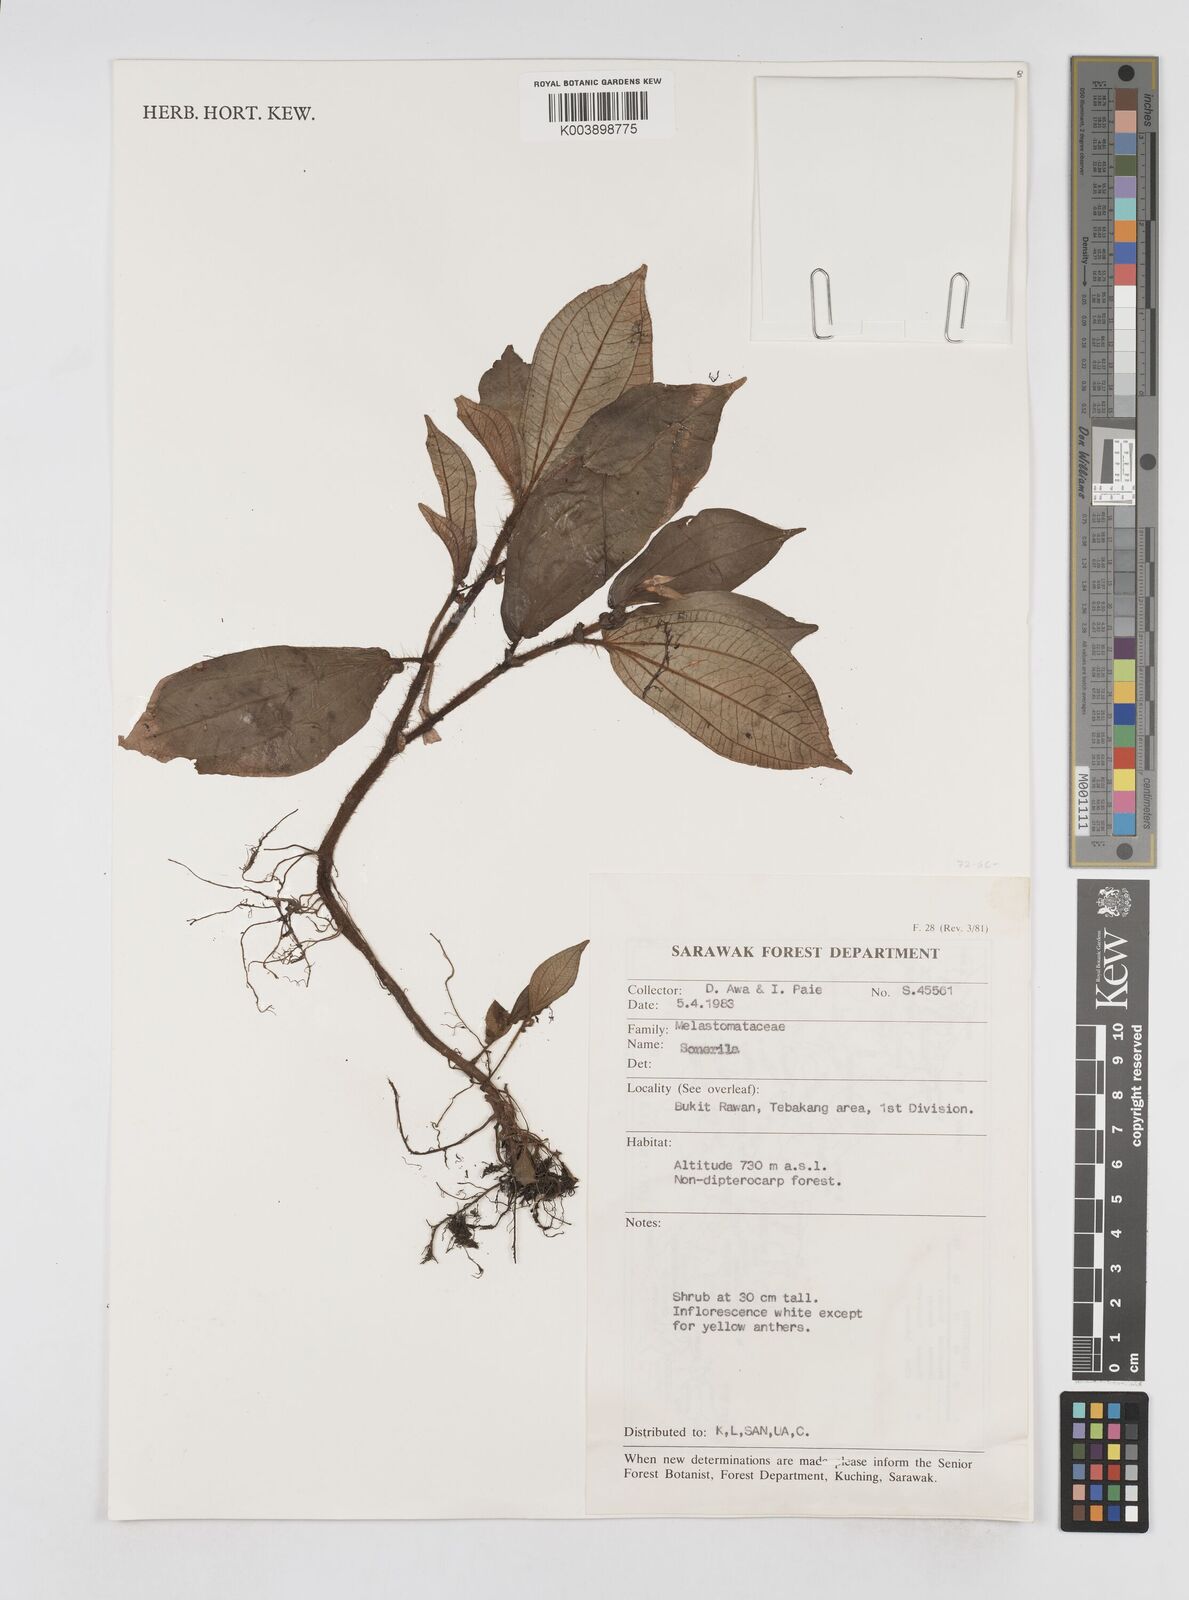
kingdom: Plantae
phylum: Tracheophyta
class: Magnoliopsida
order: Myrtales
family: Melastomataceae
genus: Sonerila
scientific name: Sonerila
